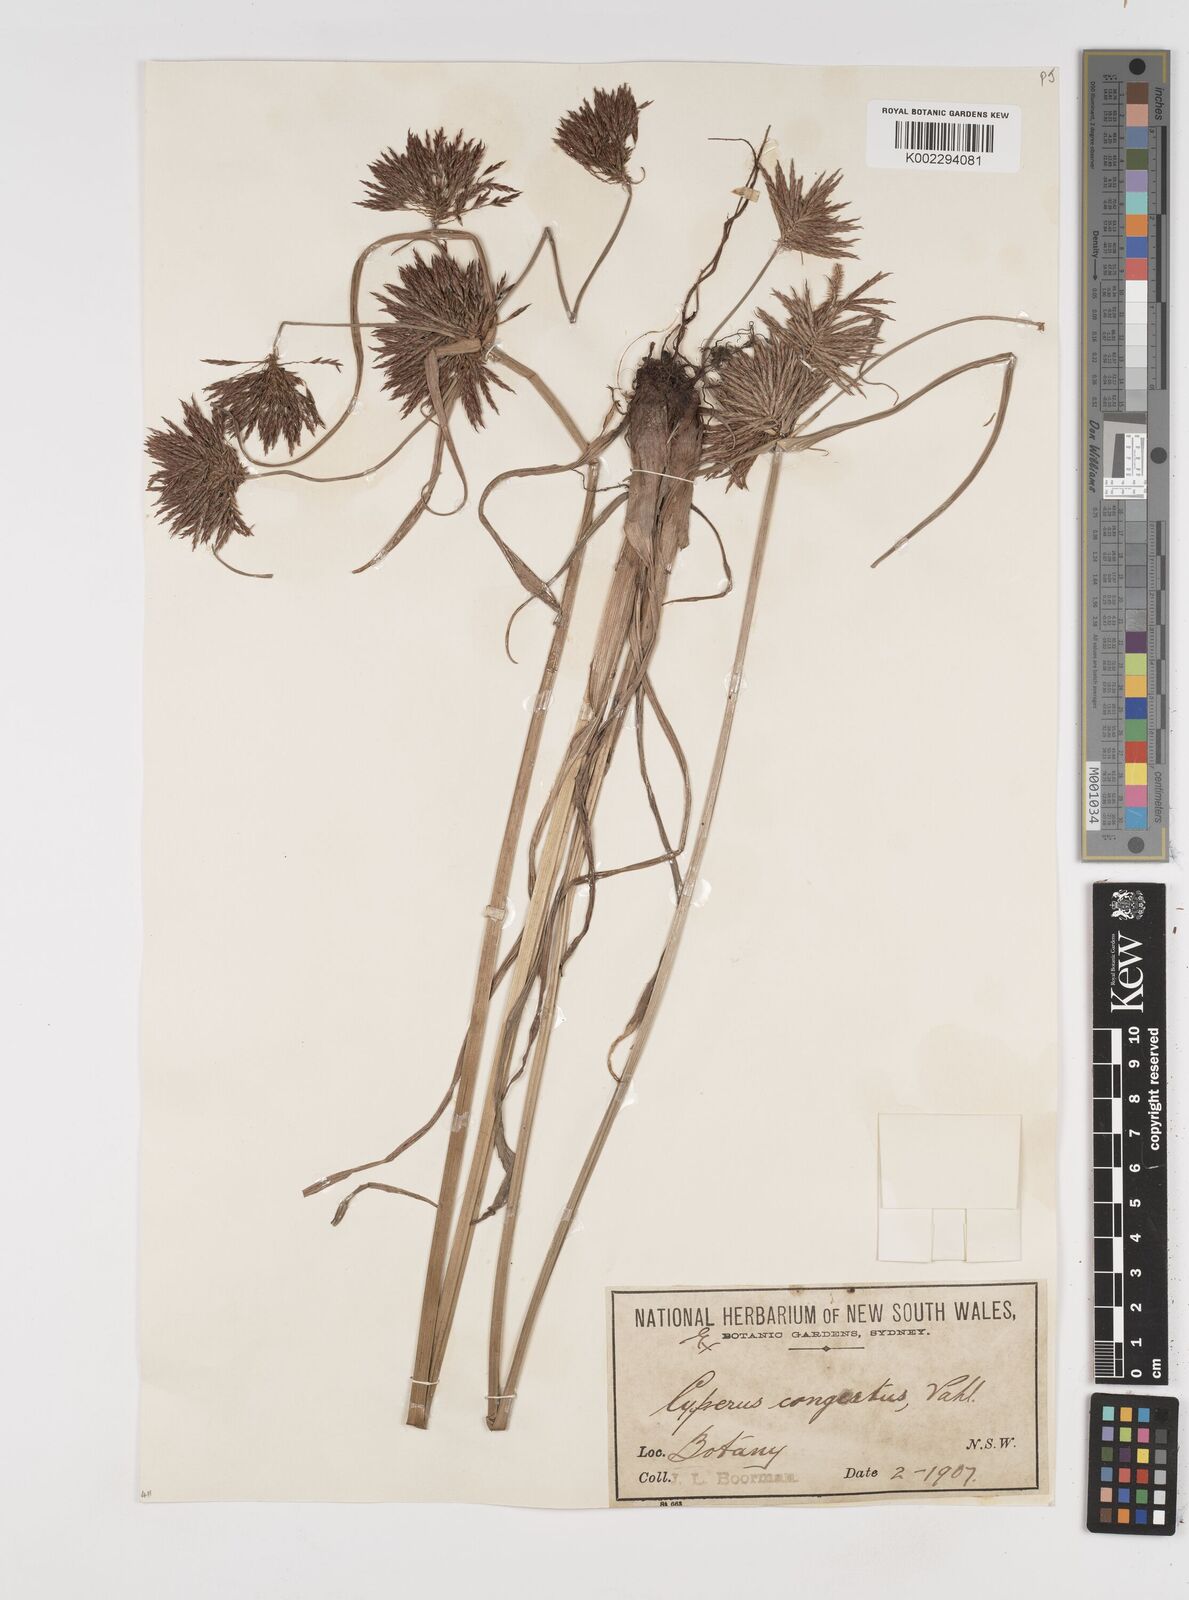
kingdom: Plantae
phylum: Tracheophyta
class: Liliopsida
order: Poales
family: Cyperaceae
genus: Cyperus
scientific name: Cyperus congestus
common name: Dense flat sedge
